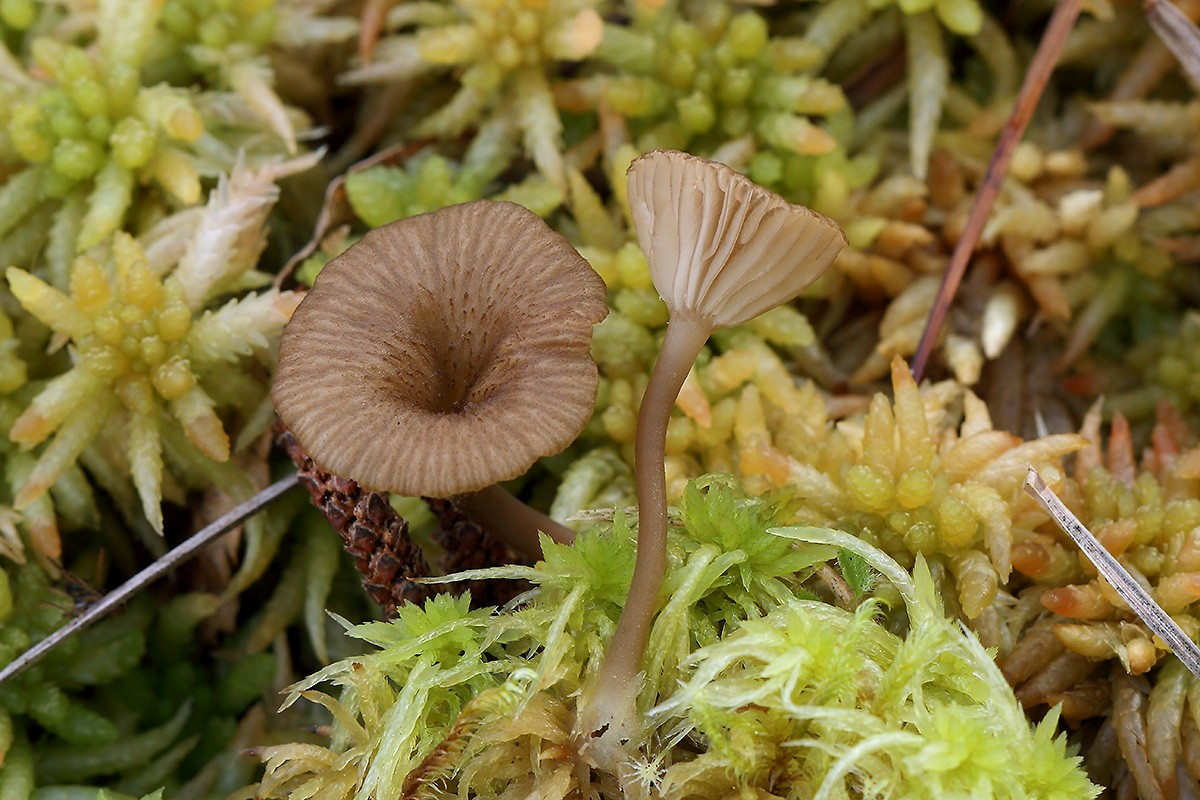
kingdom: Fungi
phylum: Basidiomycota
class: Agaricomycetes
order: Agaricales
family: Hygrophoraceae
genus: Arrhenia
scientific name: Arrhenia gerardiana
